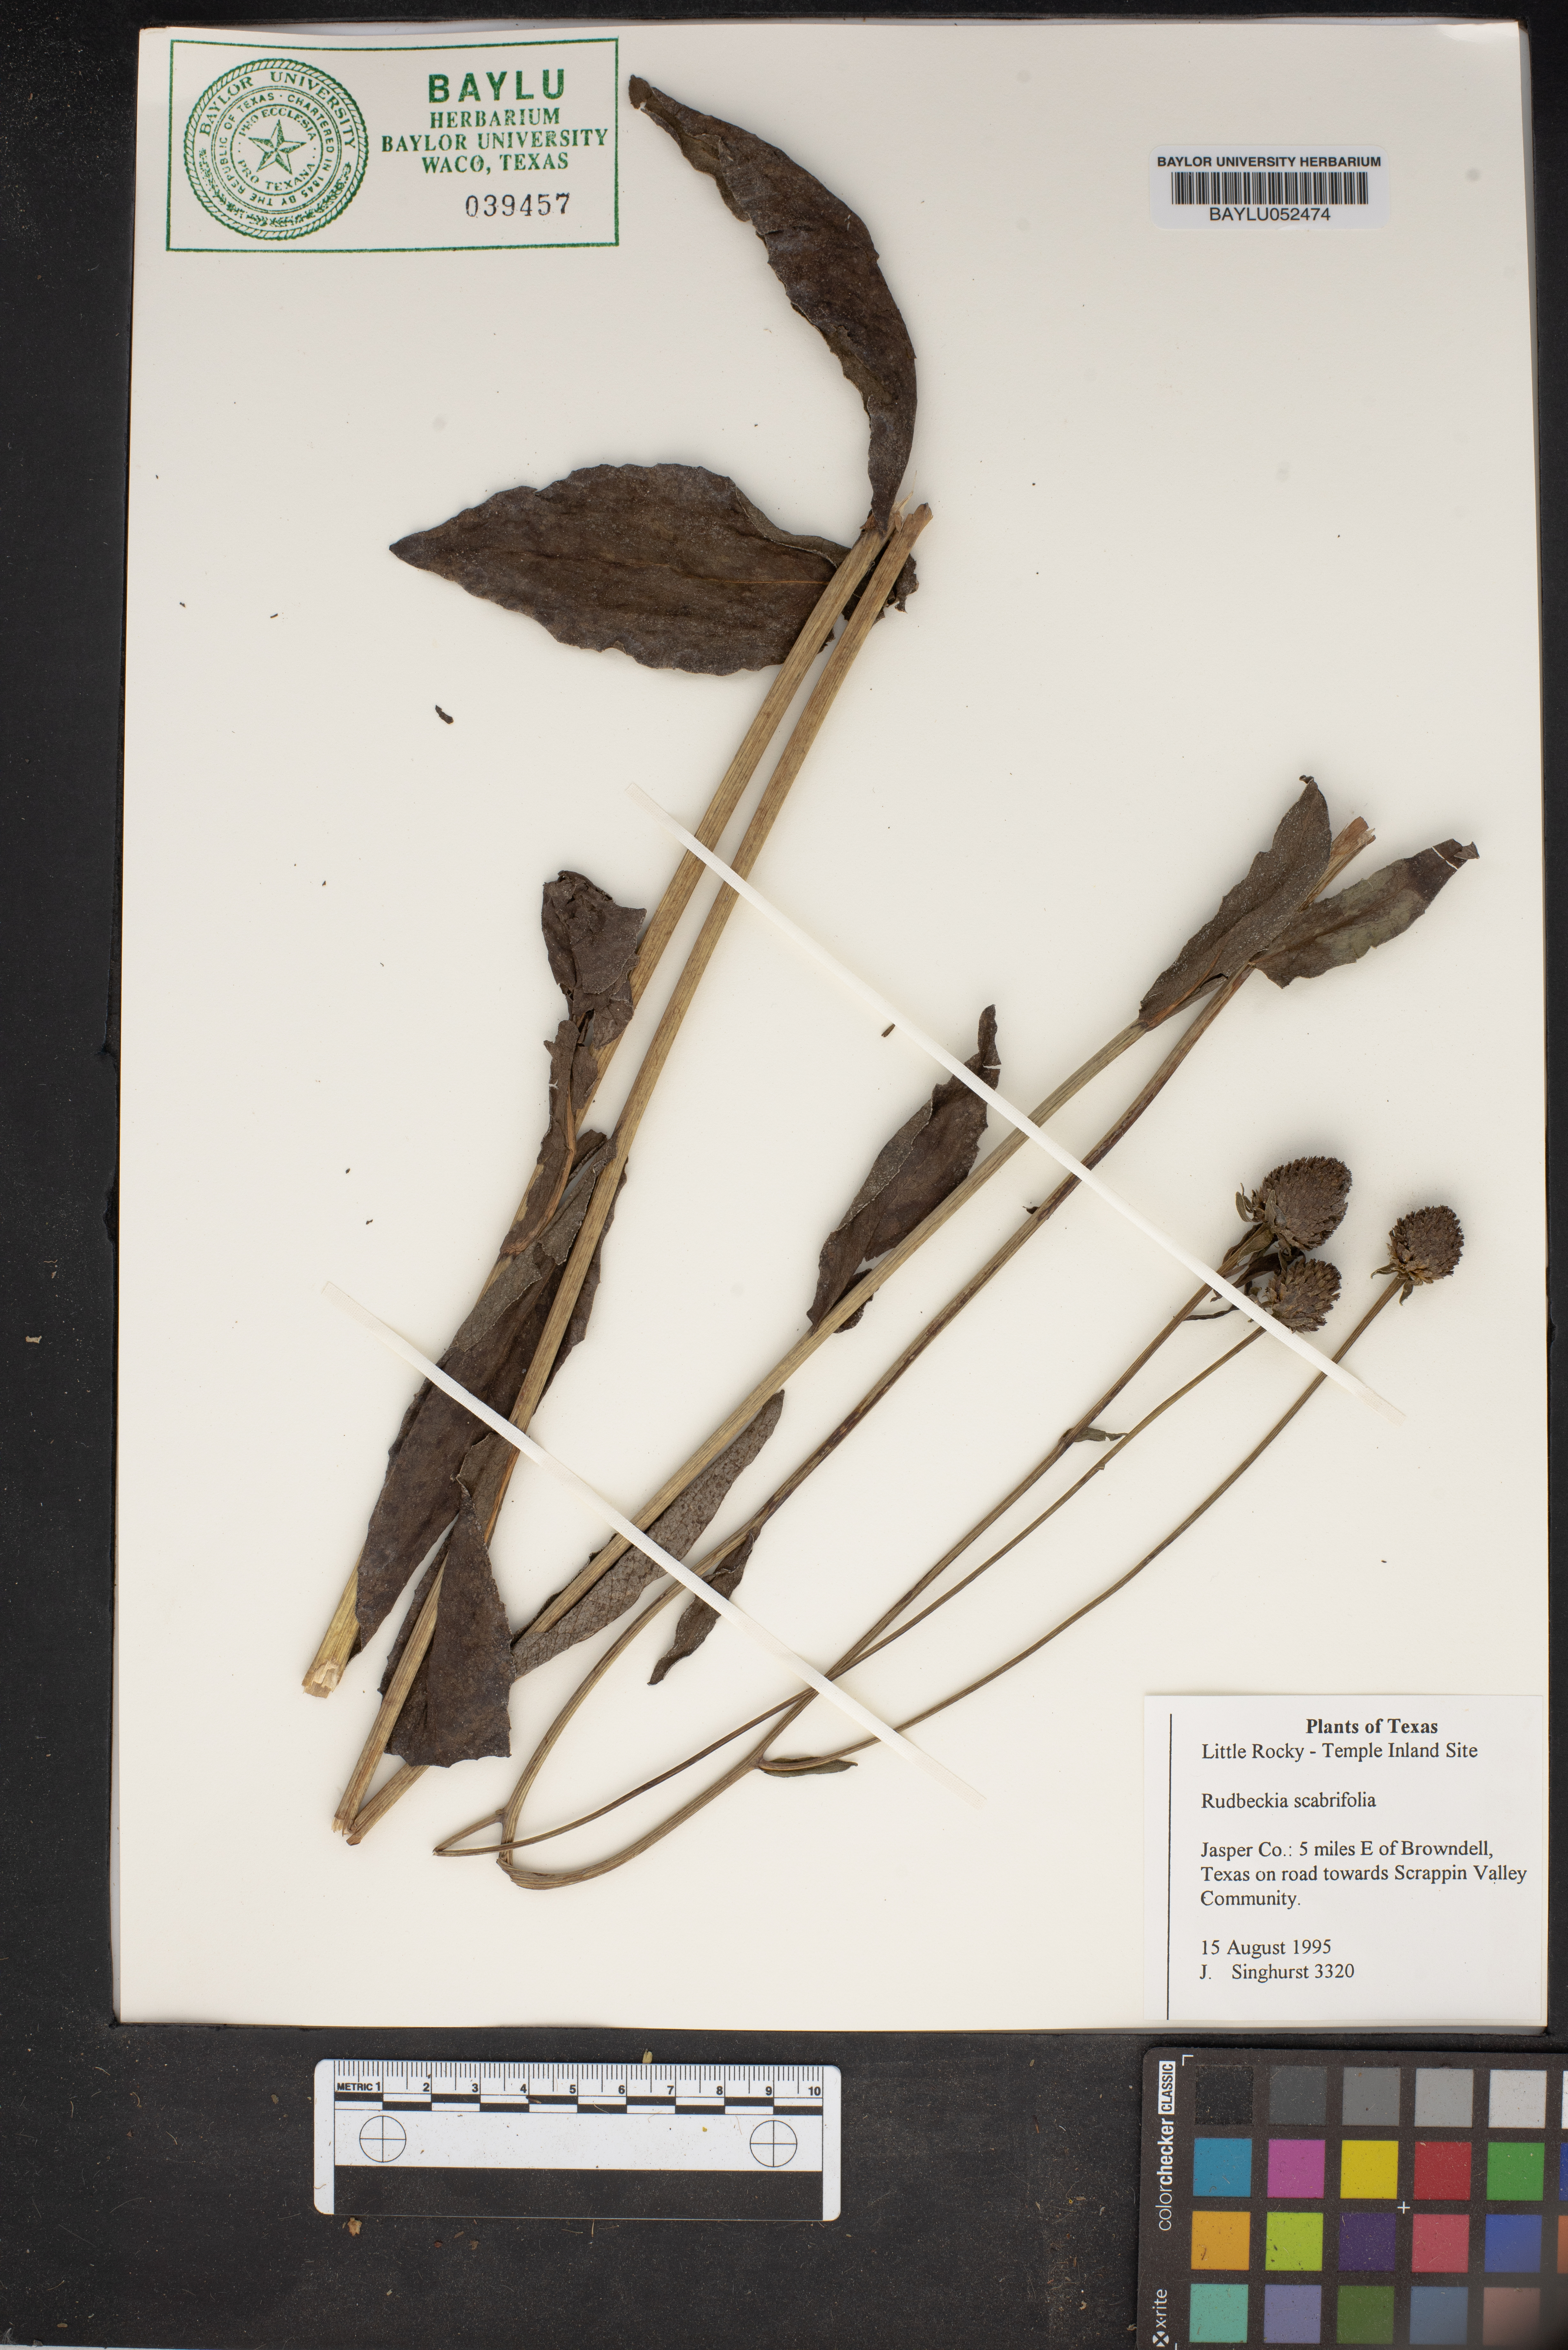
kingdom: Plantae
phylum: Tracheophyta
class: Magnoliopsida
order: Asterales
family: Asteraceae
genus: Rudbeckia
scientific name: Rudbeckia scabrifolia
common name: Rough-leaf coneflower
